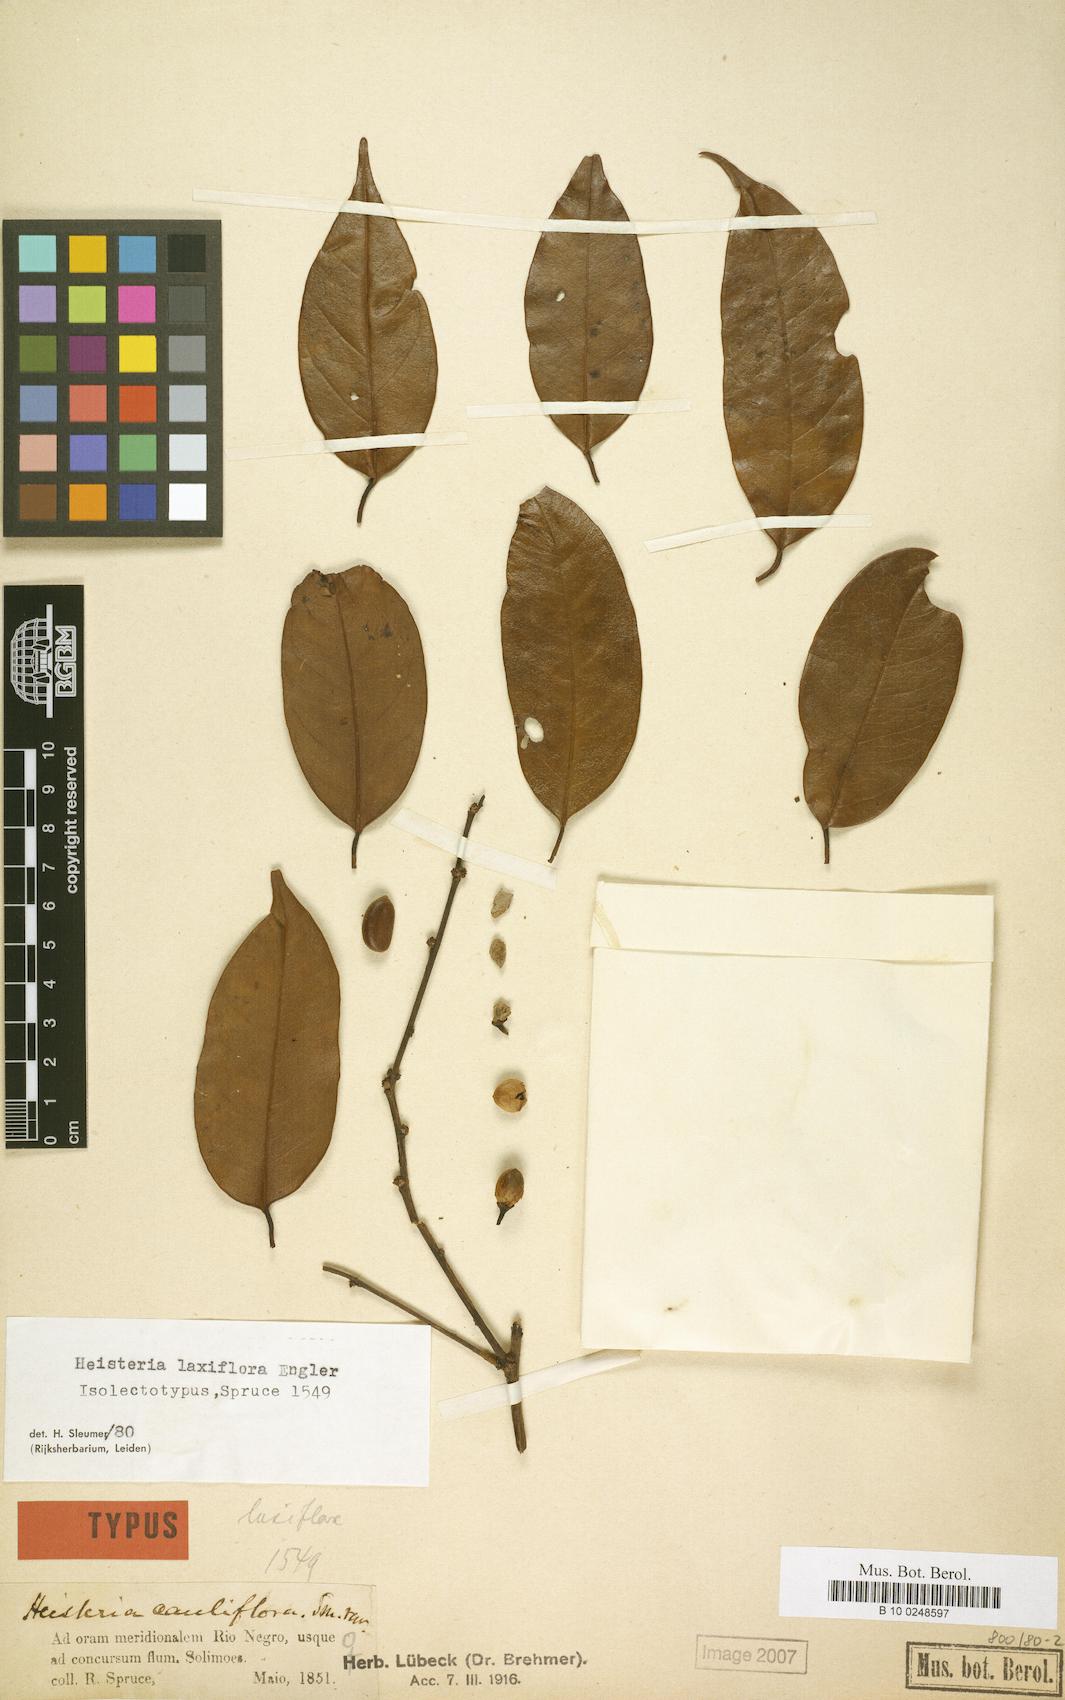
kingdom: Plantae
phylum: Tracheophyta
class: Magnoliopsida
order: Santalales
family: Erythropalaceae
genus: Heisteria
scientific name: Heisteria laxiflora
